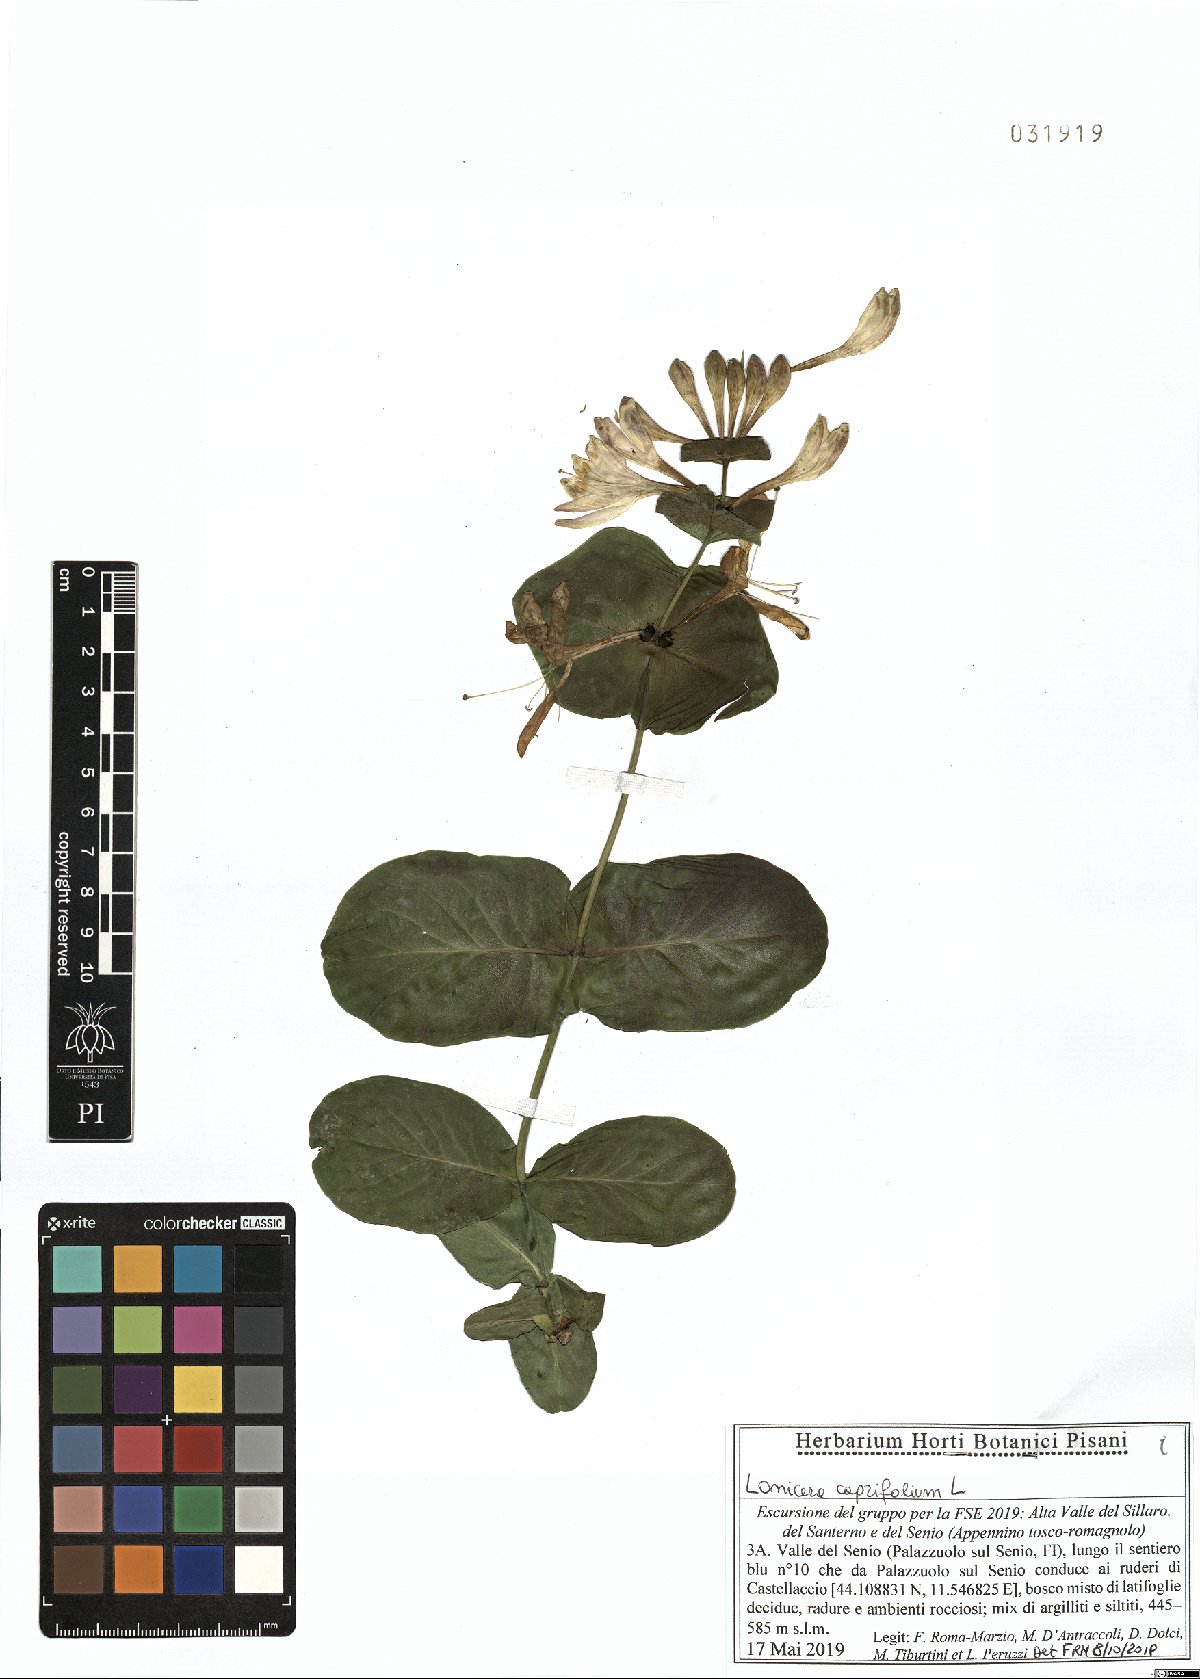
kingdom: Plantae
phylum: Tracheophyta
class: Magnoliopsida
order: Dipsacales
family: Caprifoliaceae
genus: Lonicera
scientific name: Lonicera caprifolium
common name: Perfoliate honeysuckle
